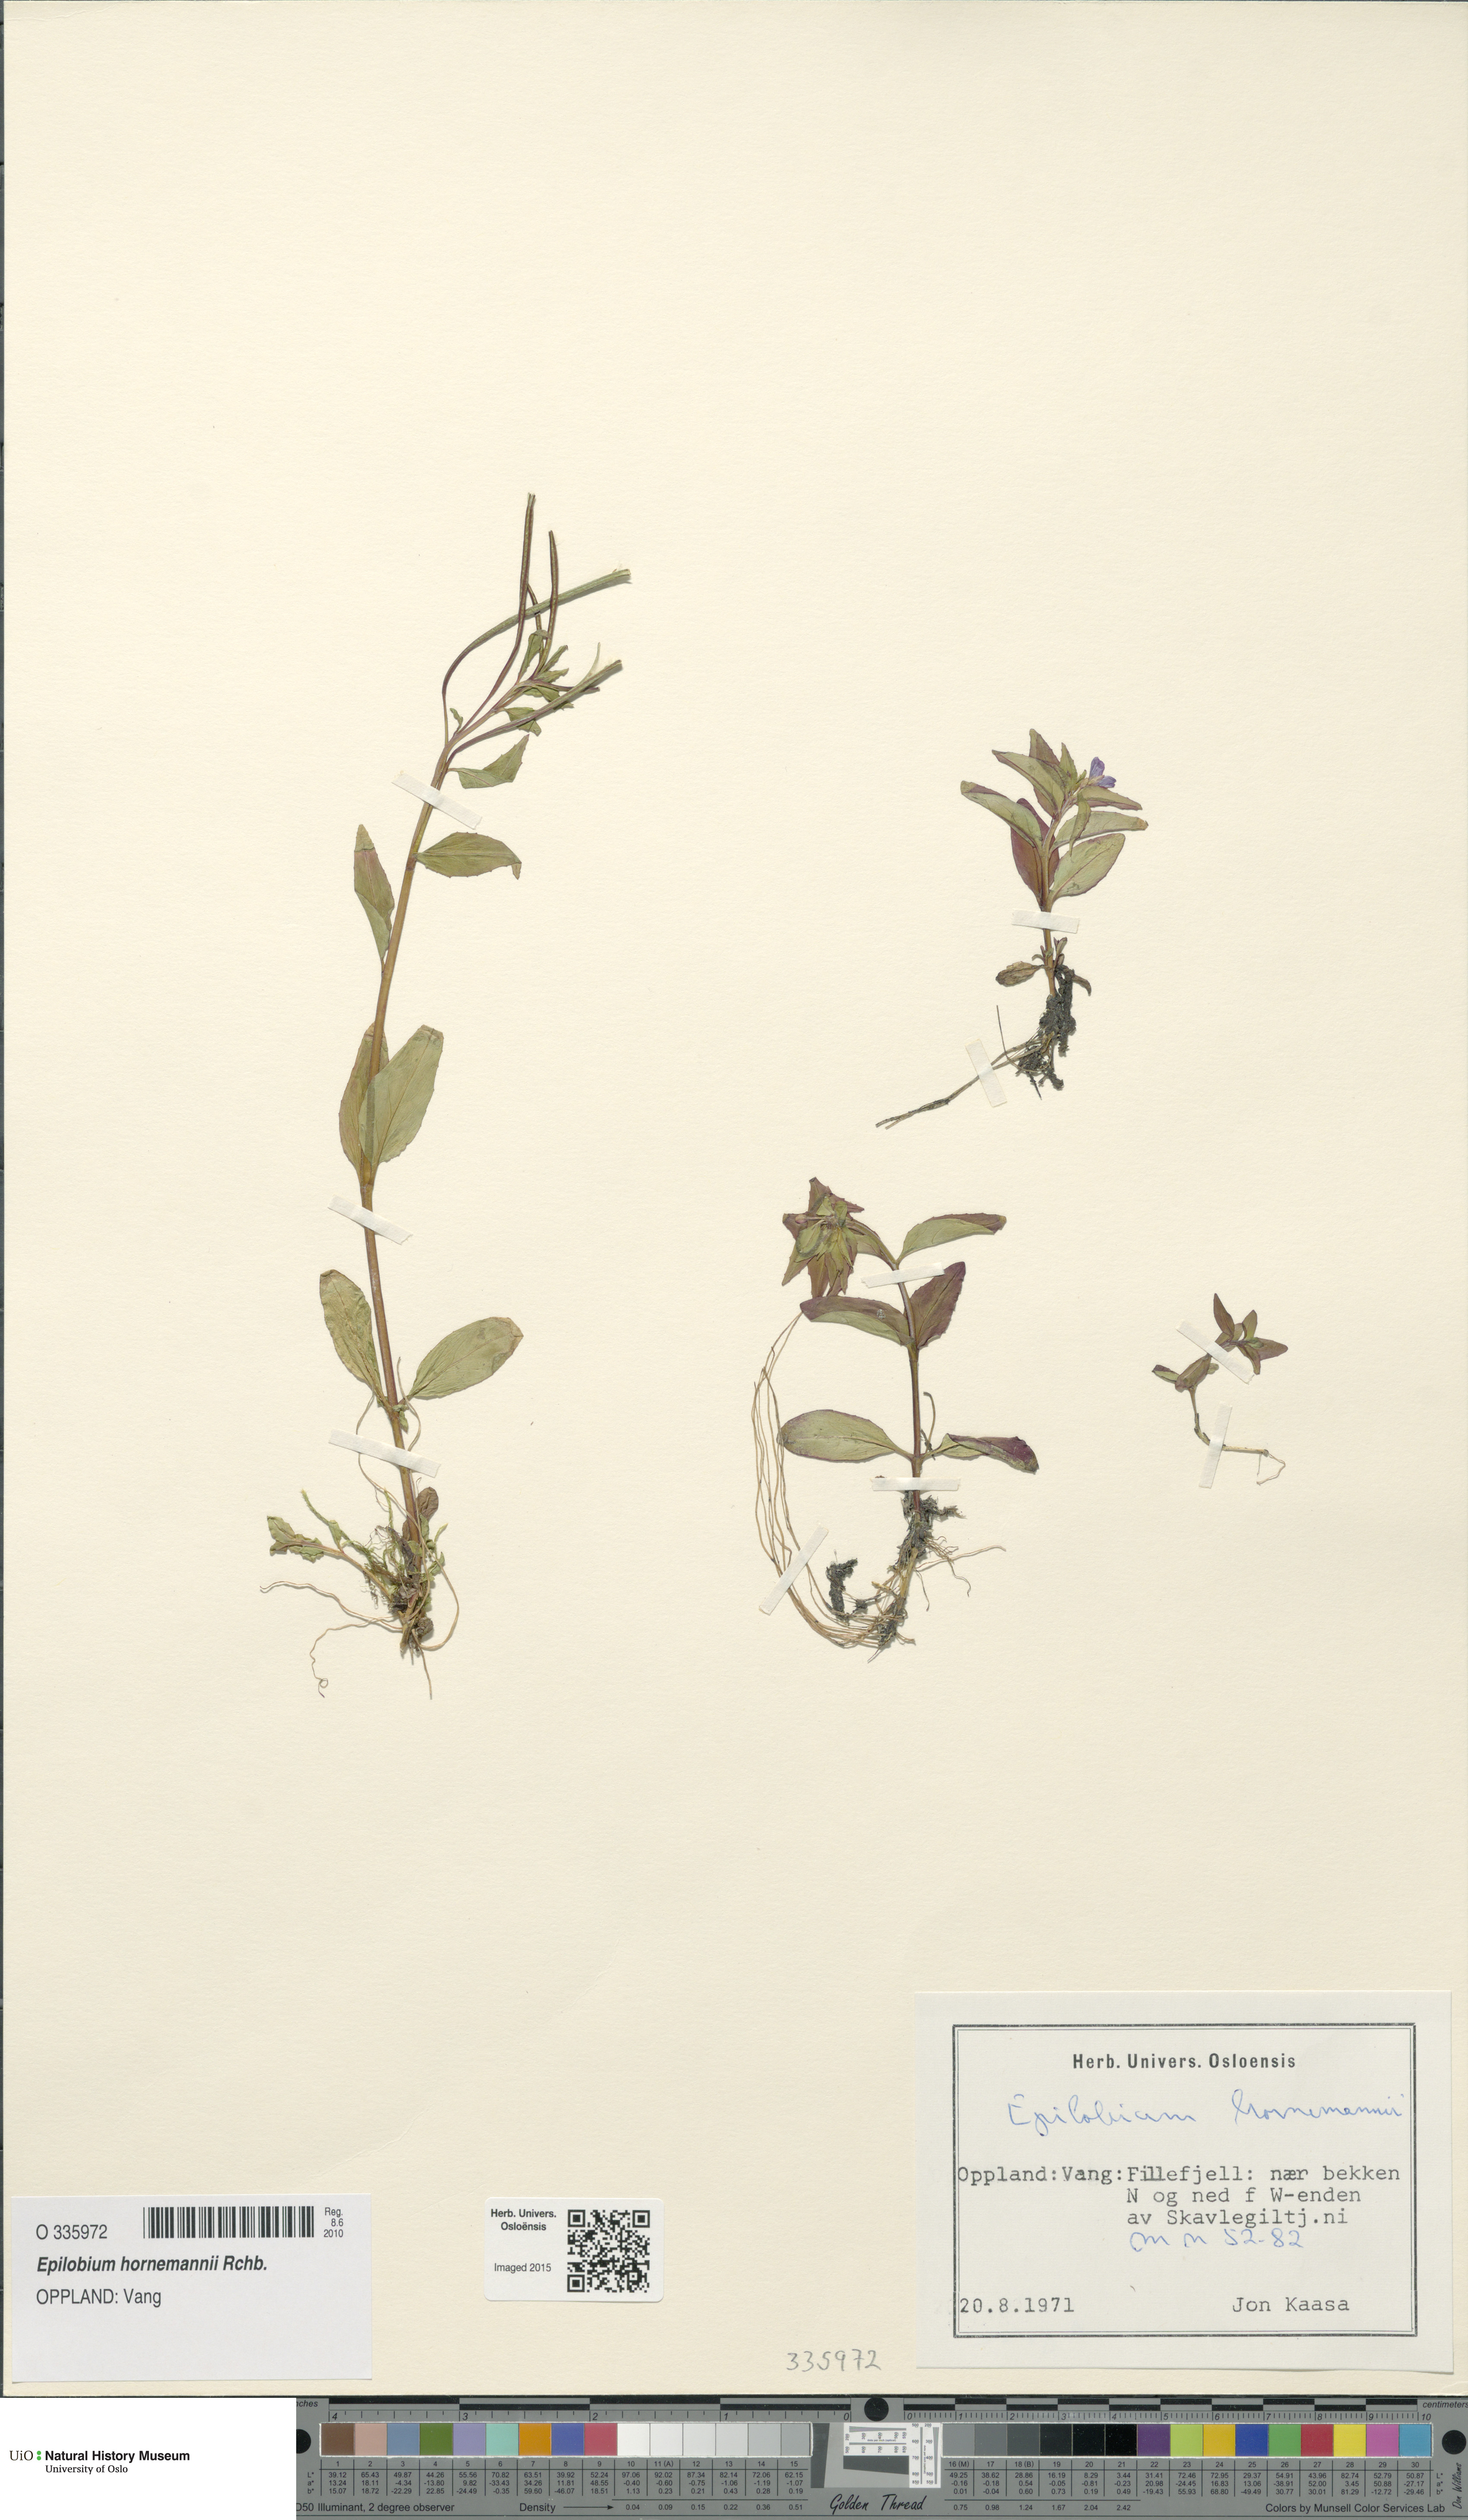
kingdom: Plantae
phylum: Tracheophyta
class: Magnoliopsida
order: Myrtales
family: Onagraceae
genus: Epilobium
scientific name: Epilobium hornemannii
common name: Hornemann's willowherb
